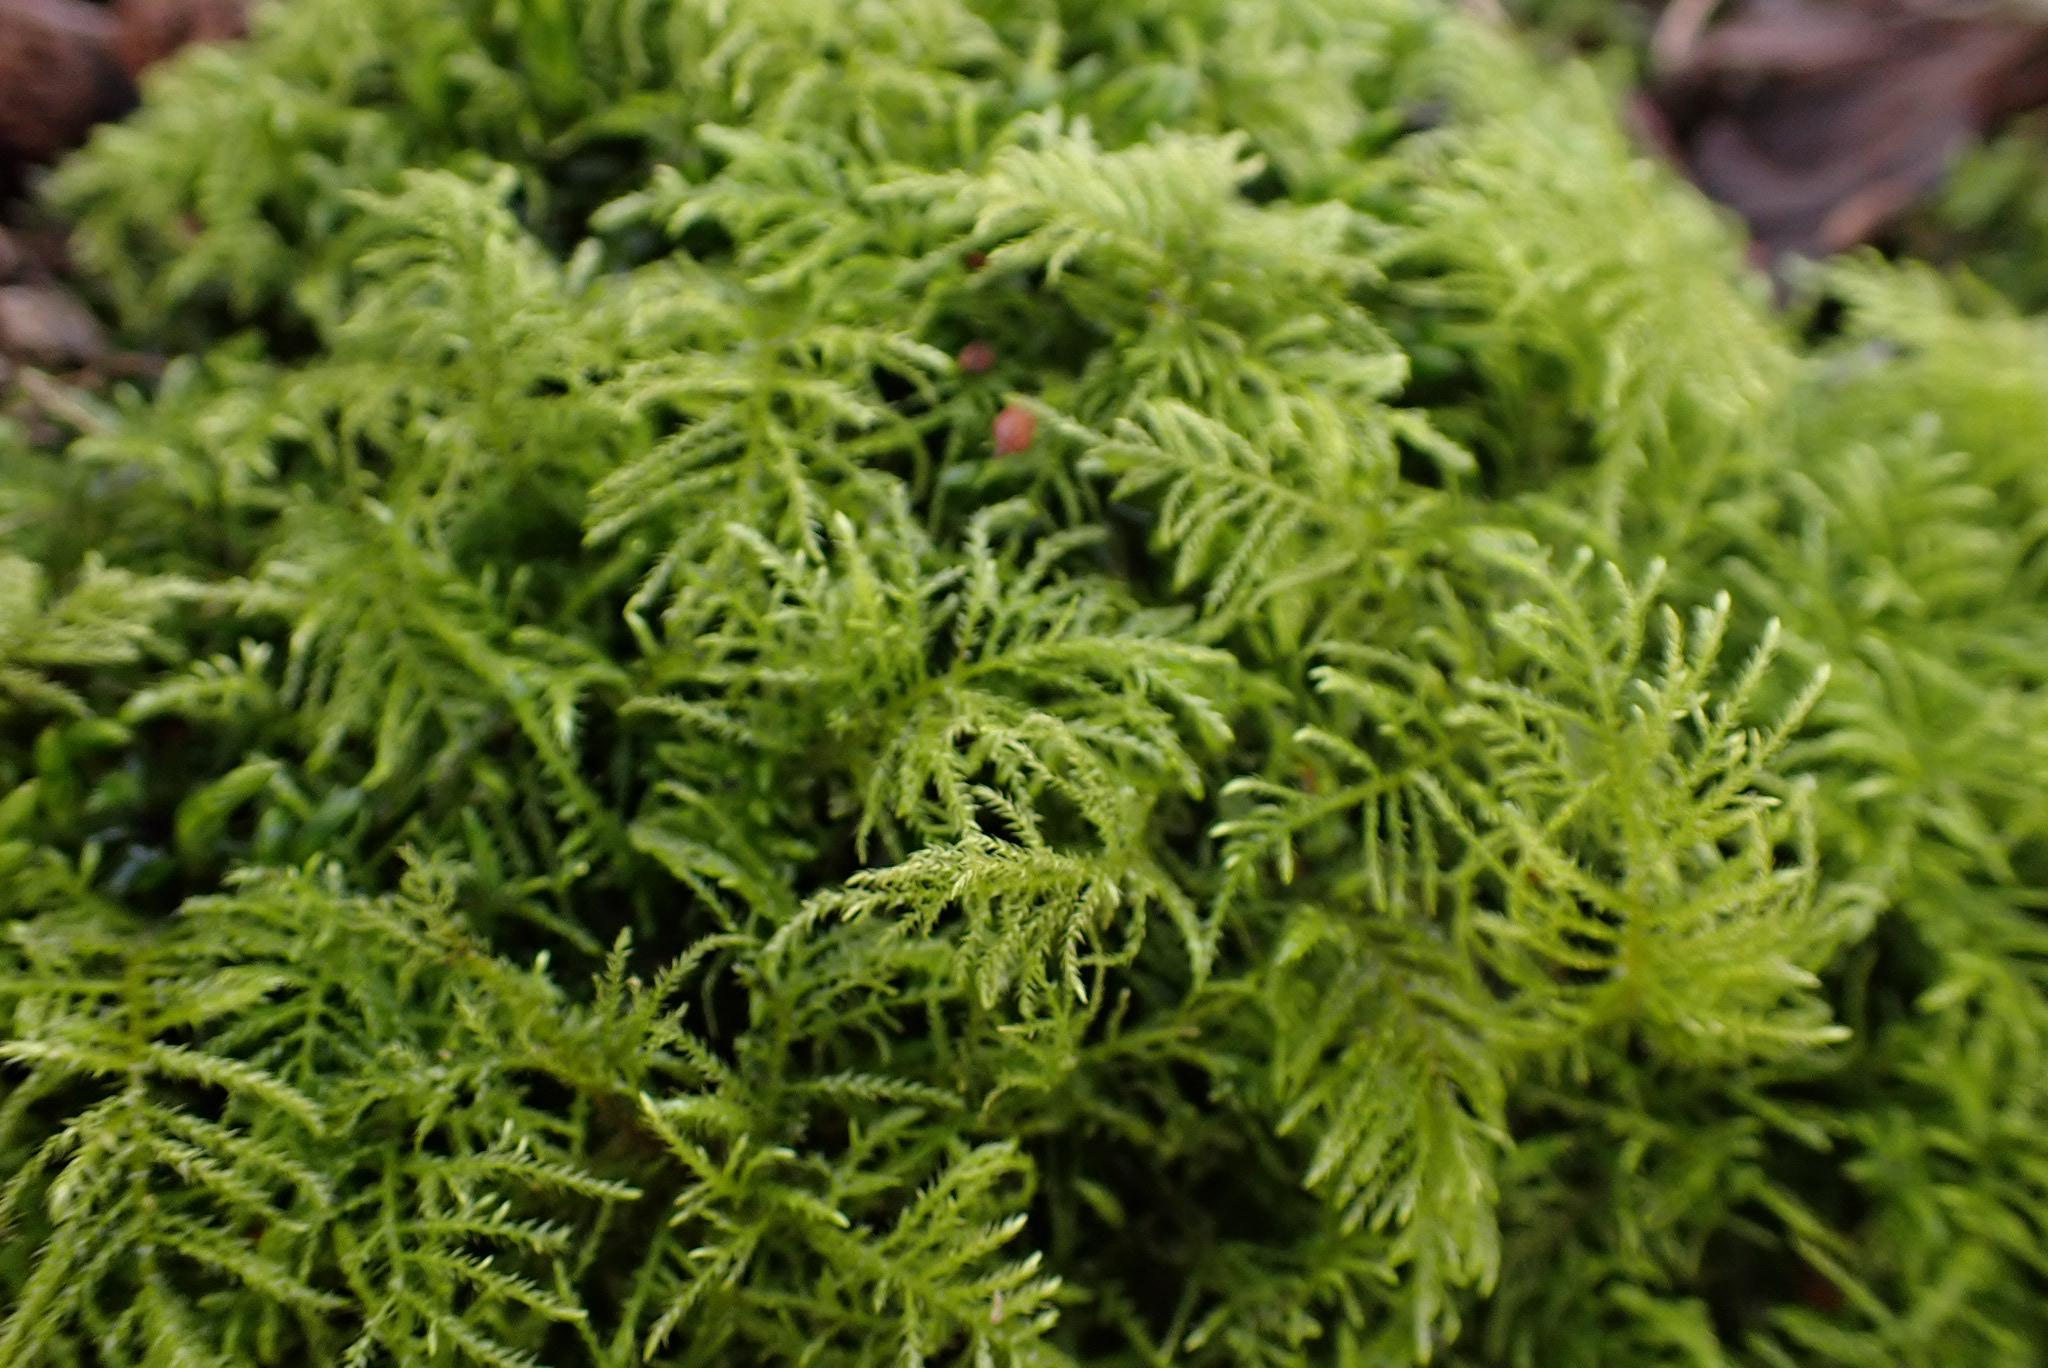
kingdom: Plantae
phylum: Bryophyta
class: Bryopsida
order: Hypnales
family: Brachytheciaceae
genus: Kindbergia
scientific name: Kindbergia praelonga
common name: Forskelligbladet vortetand
